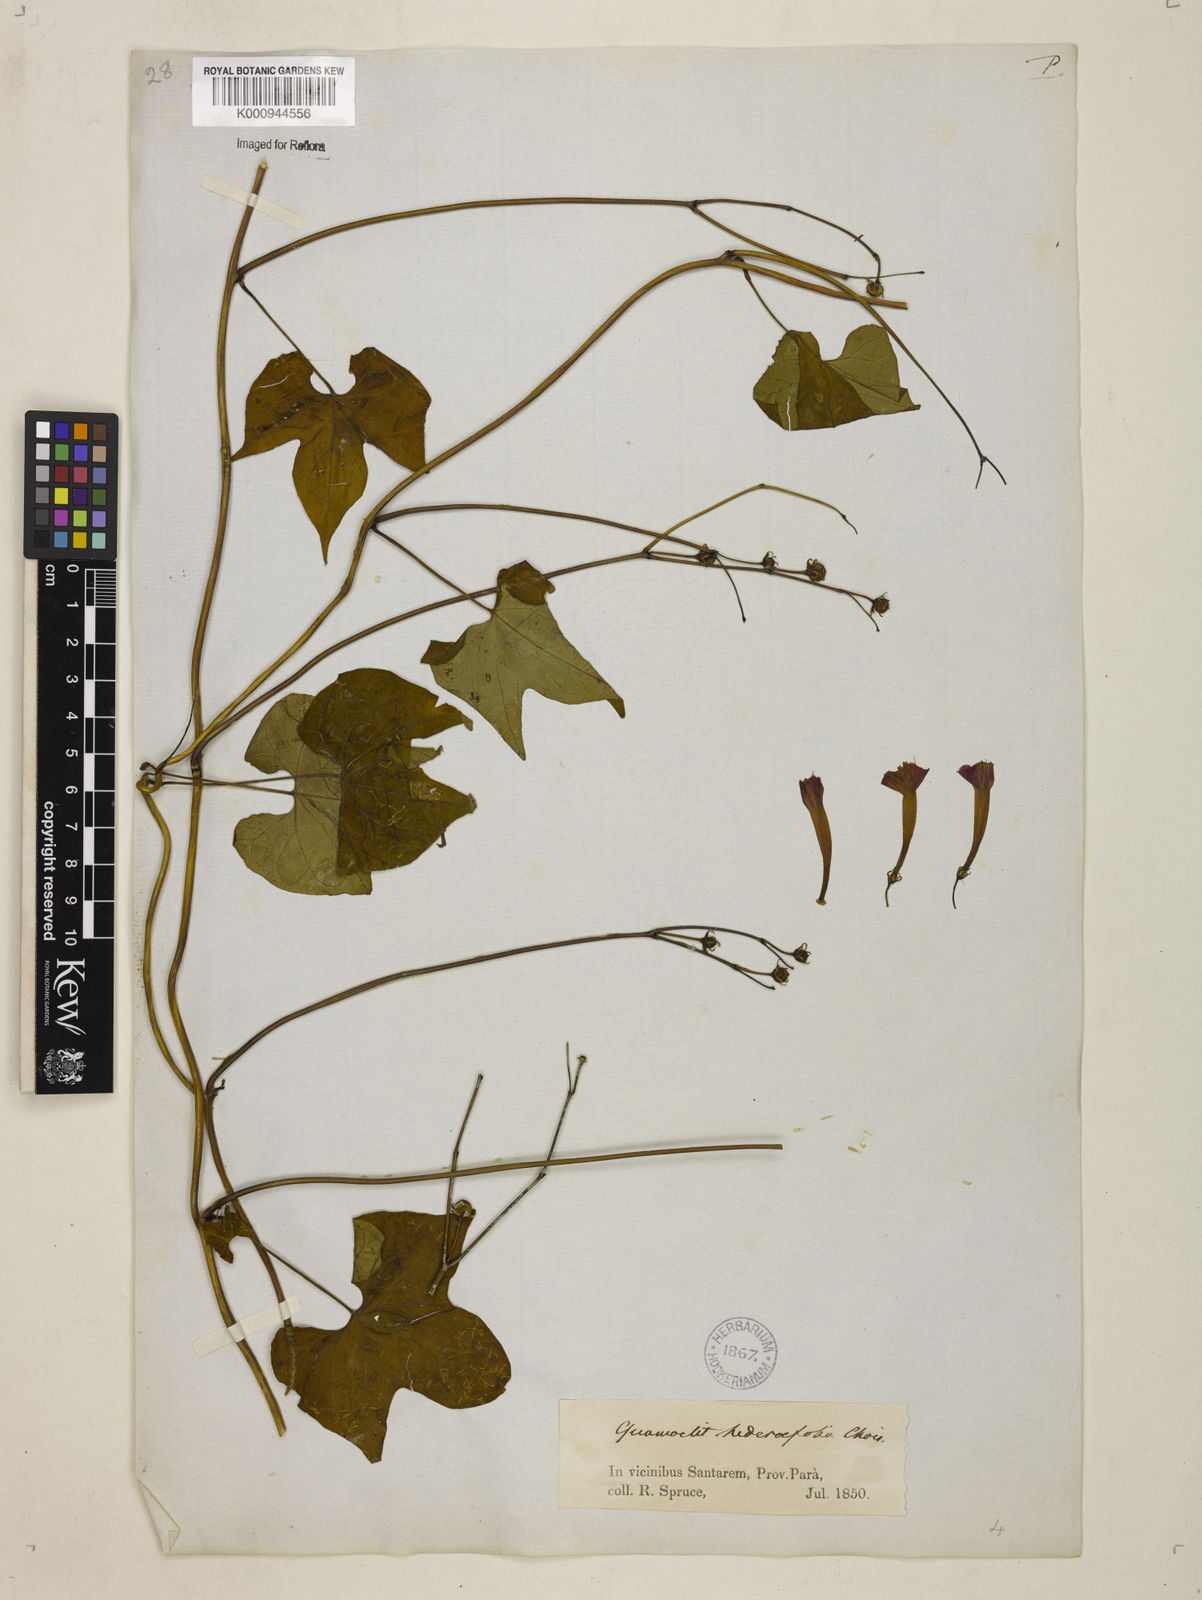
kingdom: Plantae
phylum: Tracheophyta
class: Magnoliopsida
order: Solanales
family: Convolvulaceae
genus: Ipomoea
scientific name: Ipomoea hederifolia
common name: Ivy-leaf morning-glory
